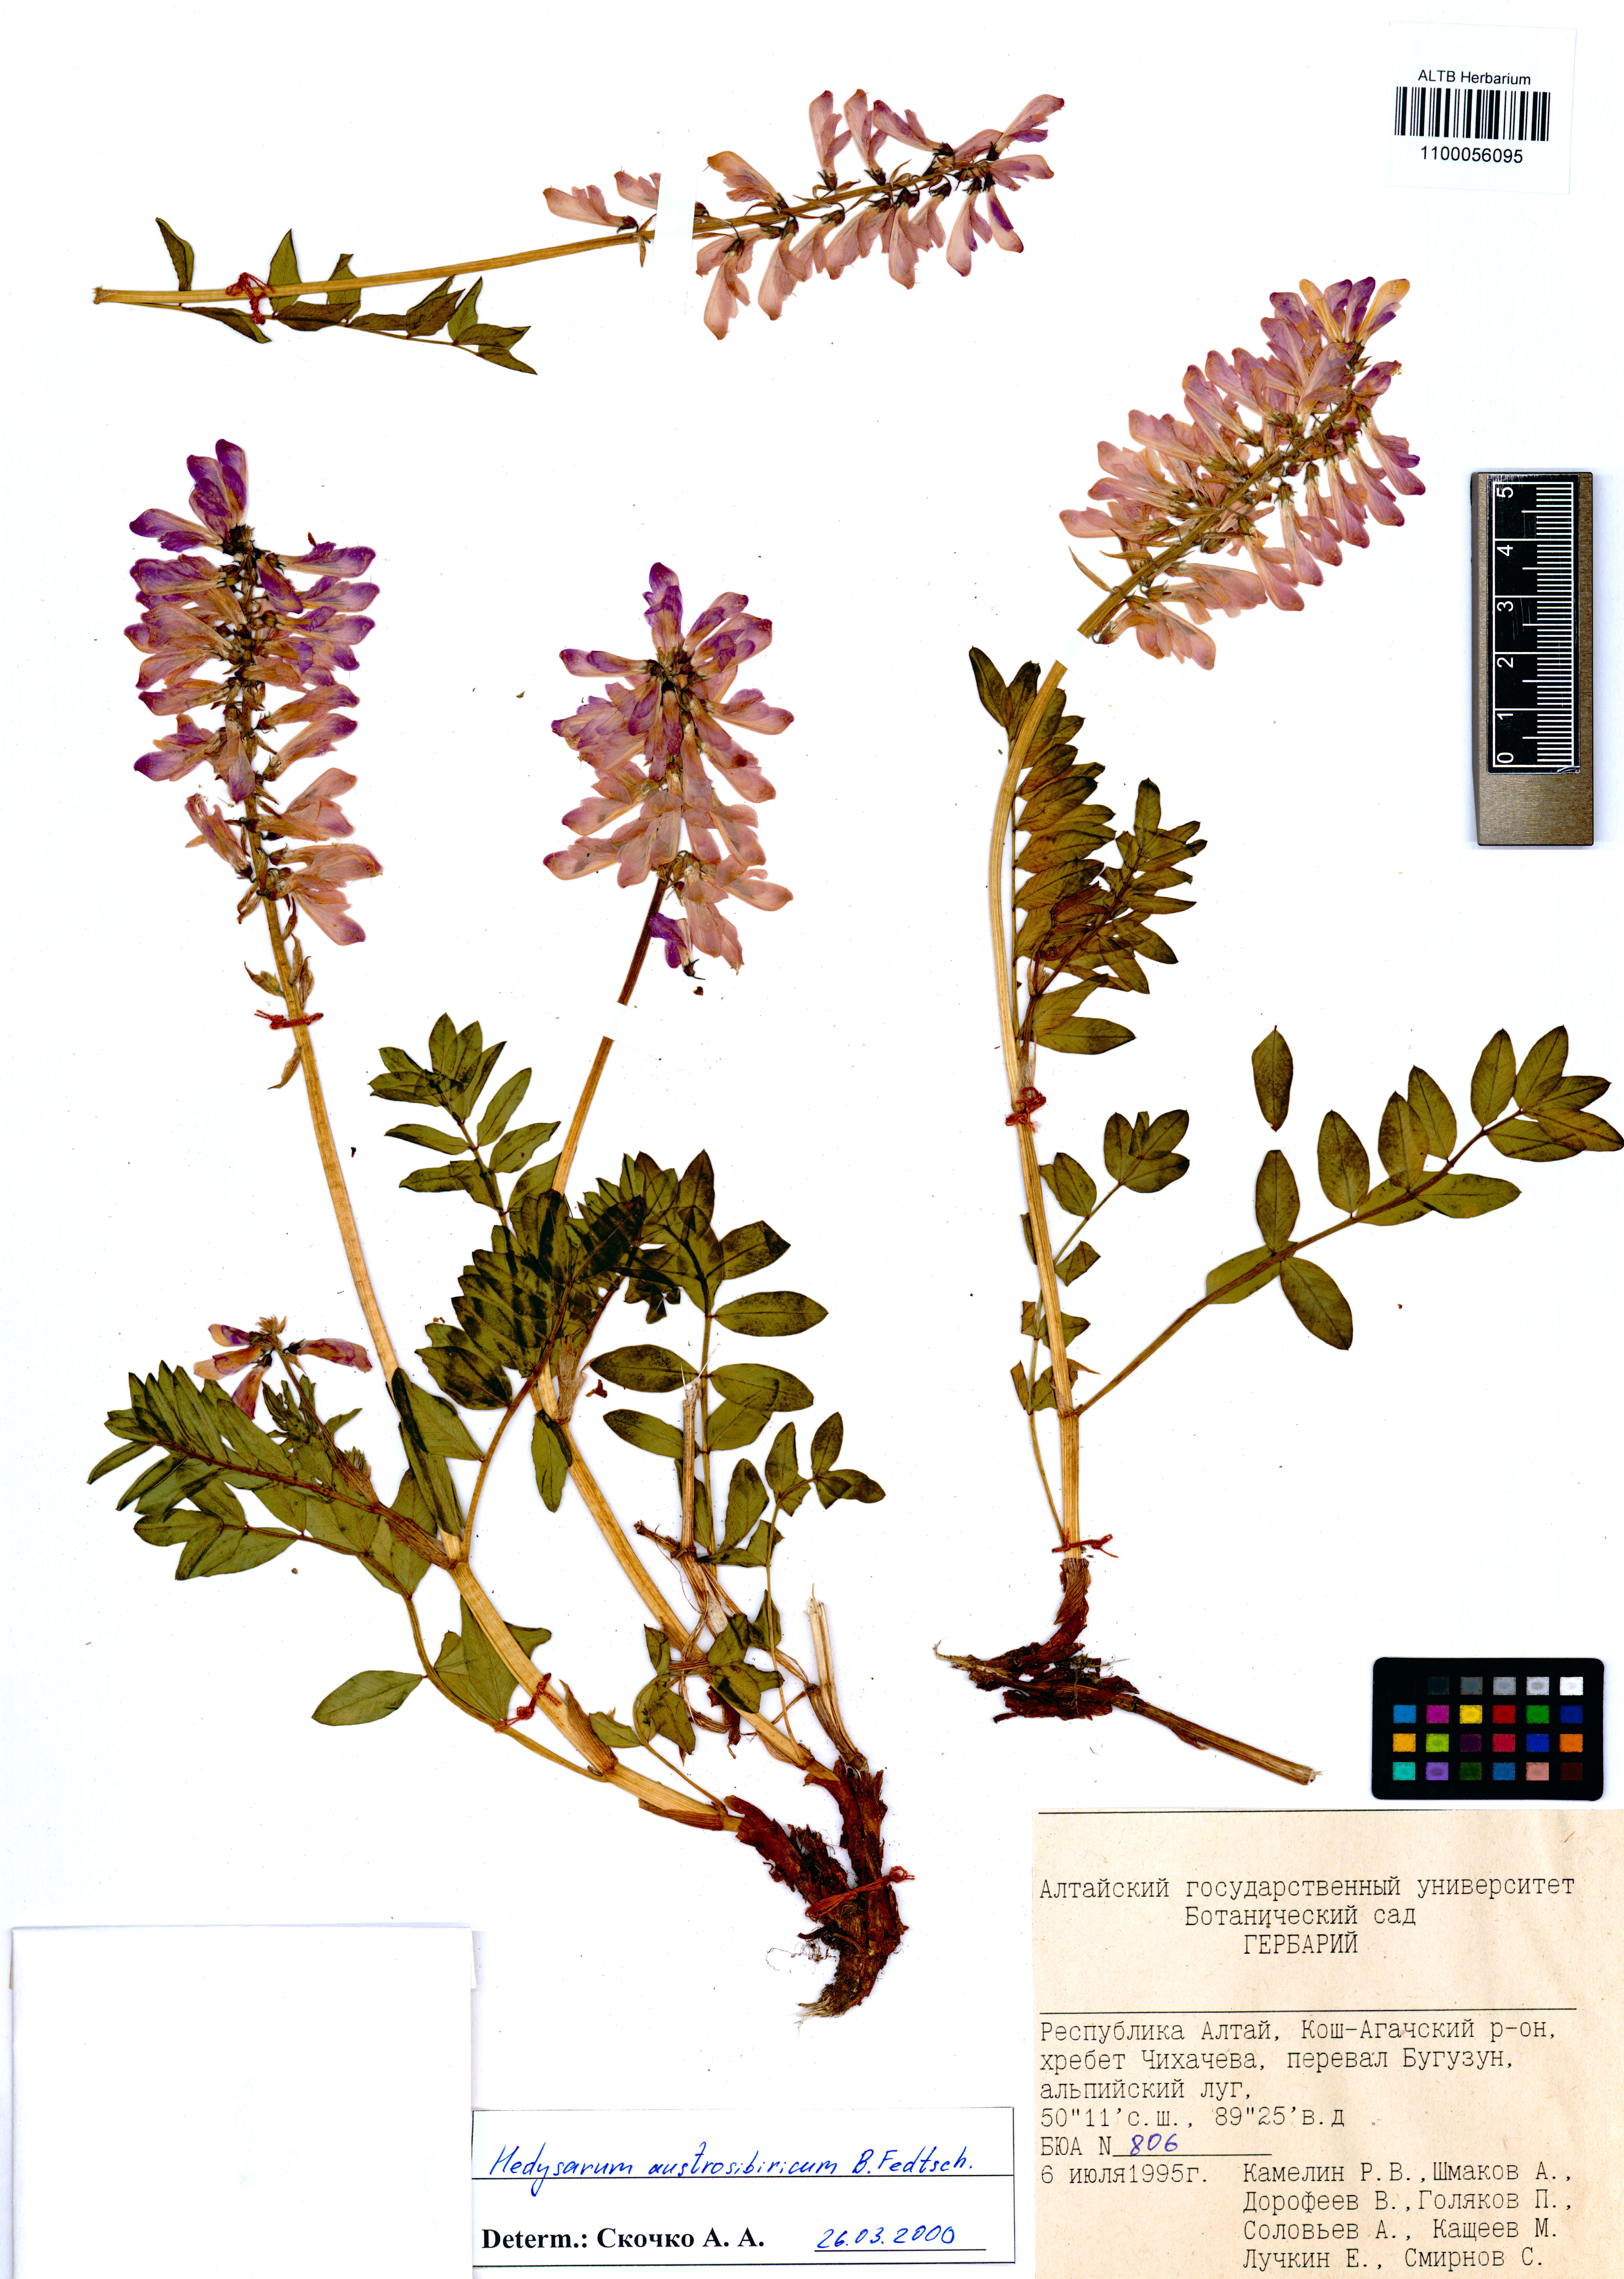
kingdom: Plantae
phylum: Tracheophyta
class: Magnoliopsida
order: Fabales
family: Fabaceae
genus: Hedysarum
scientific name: Hedysarum neglectum
